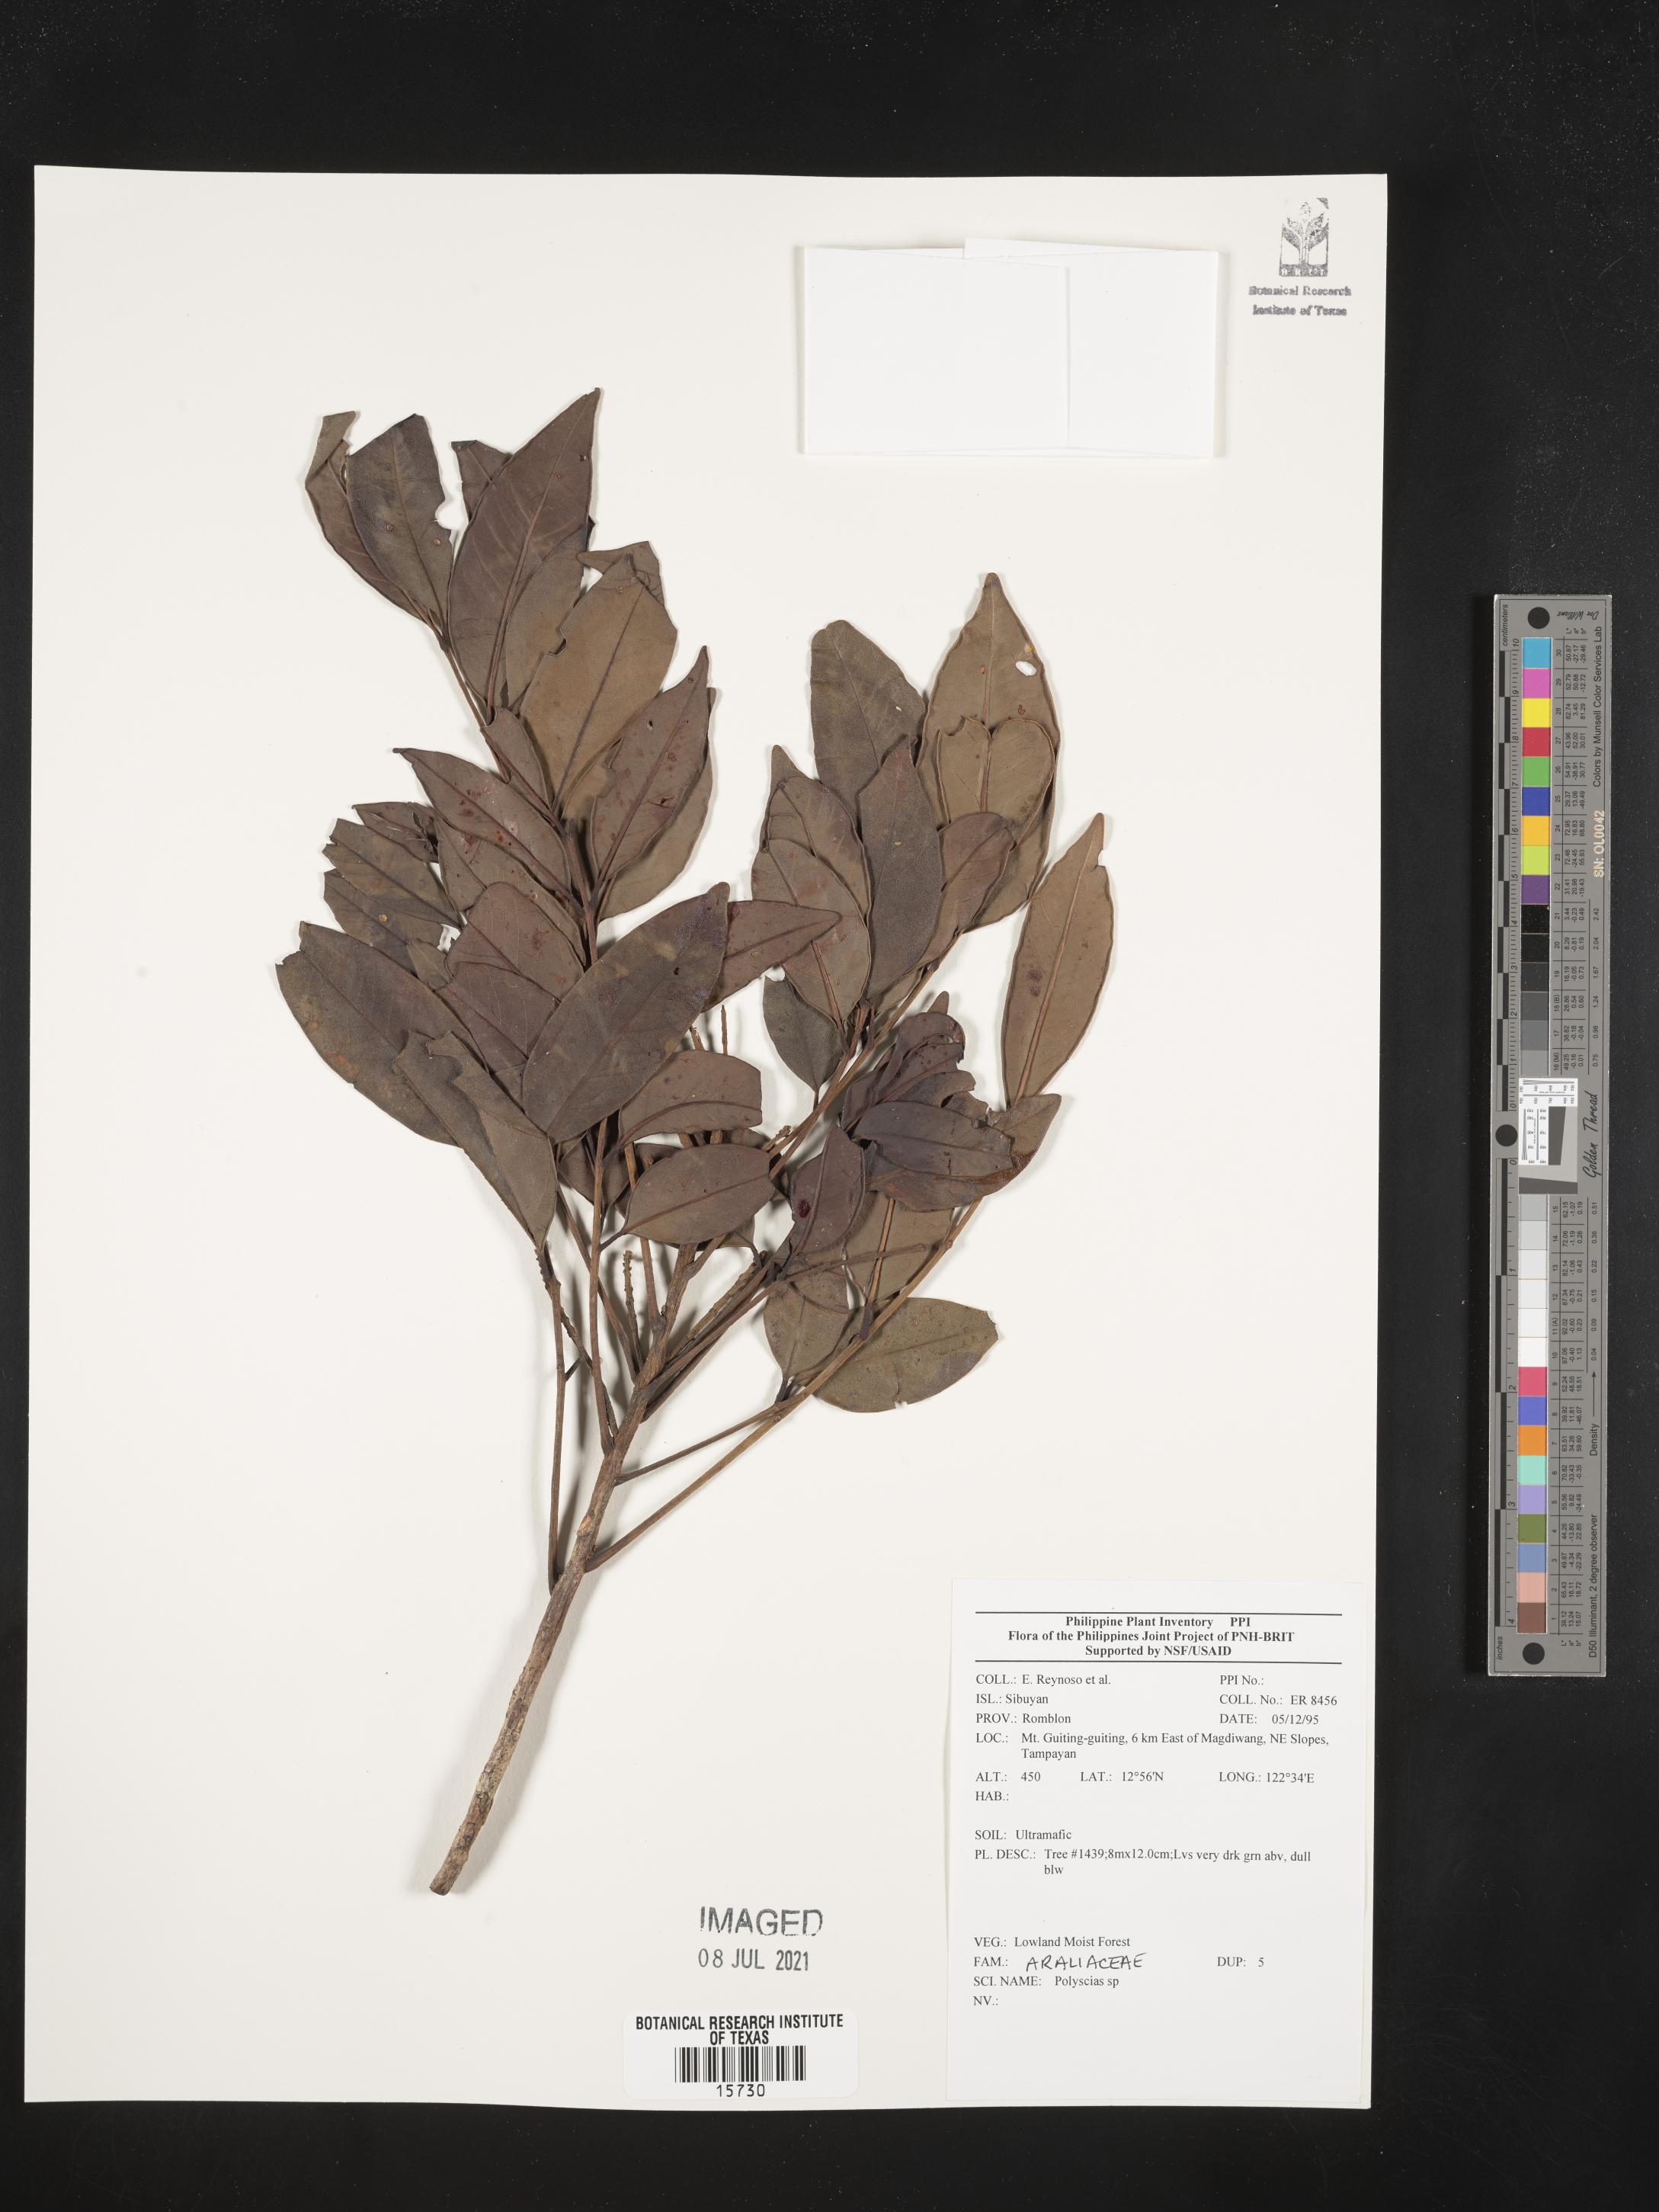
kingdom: Plantae
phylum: Tracheophyta
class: Magnoliopsida
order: Apiales
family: Araliaceae
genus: Polyscias
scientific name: Polyscias
